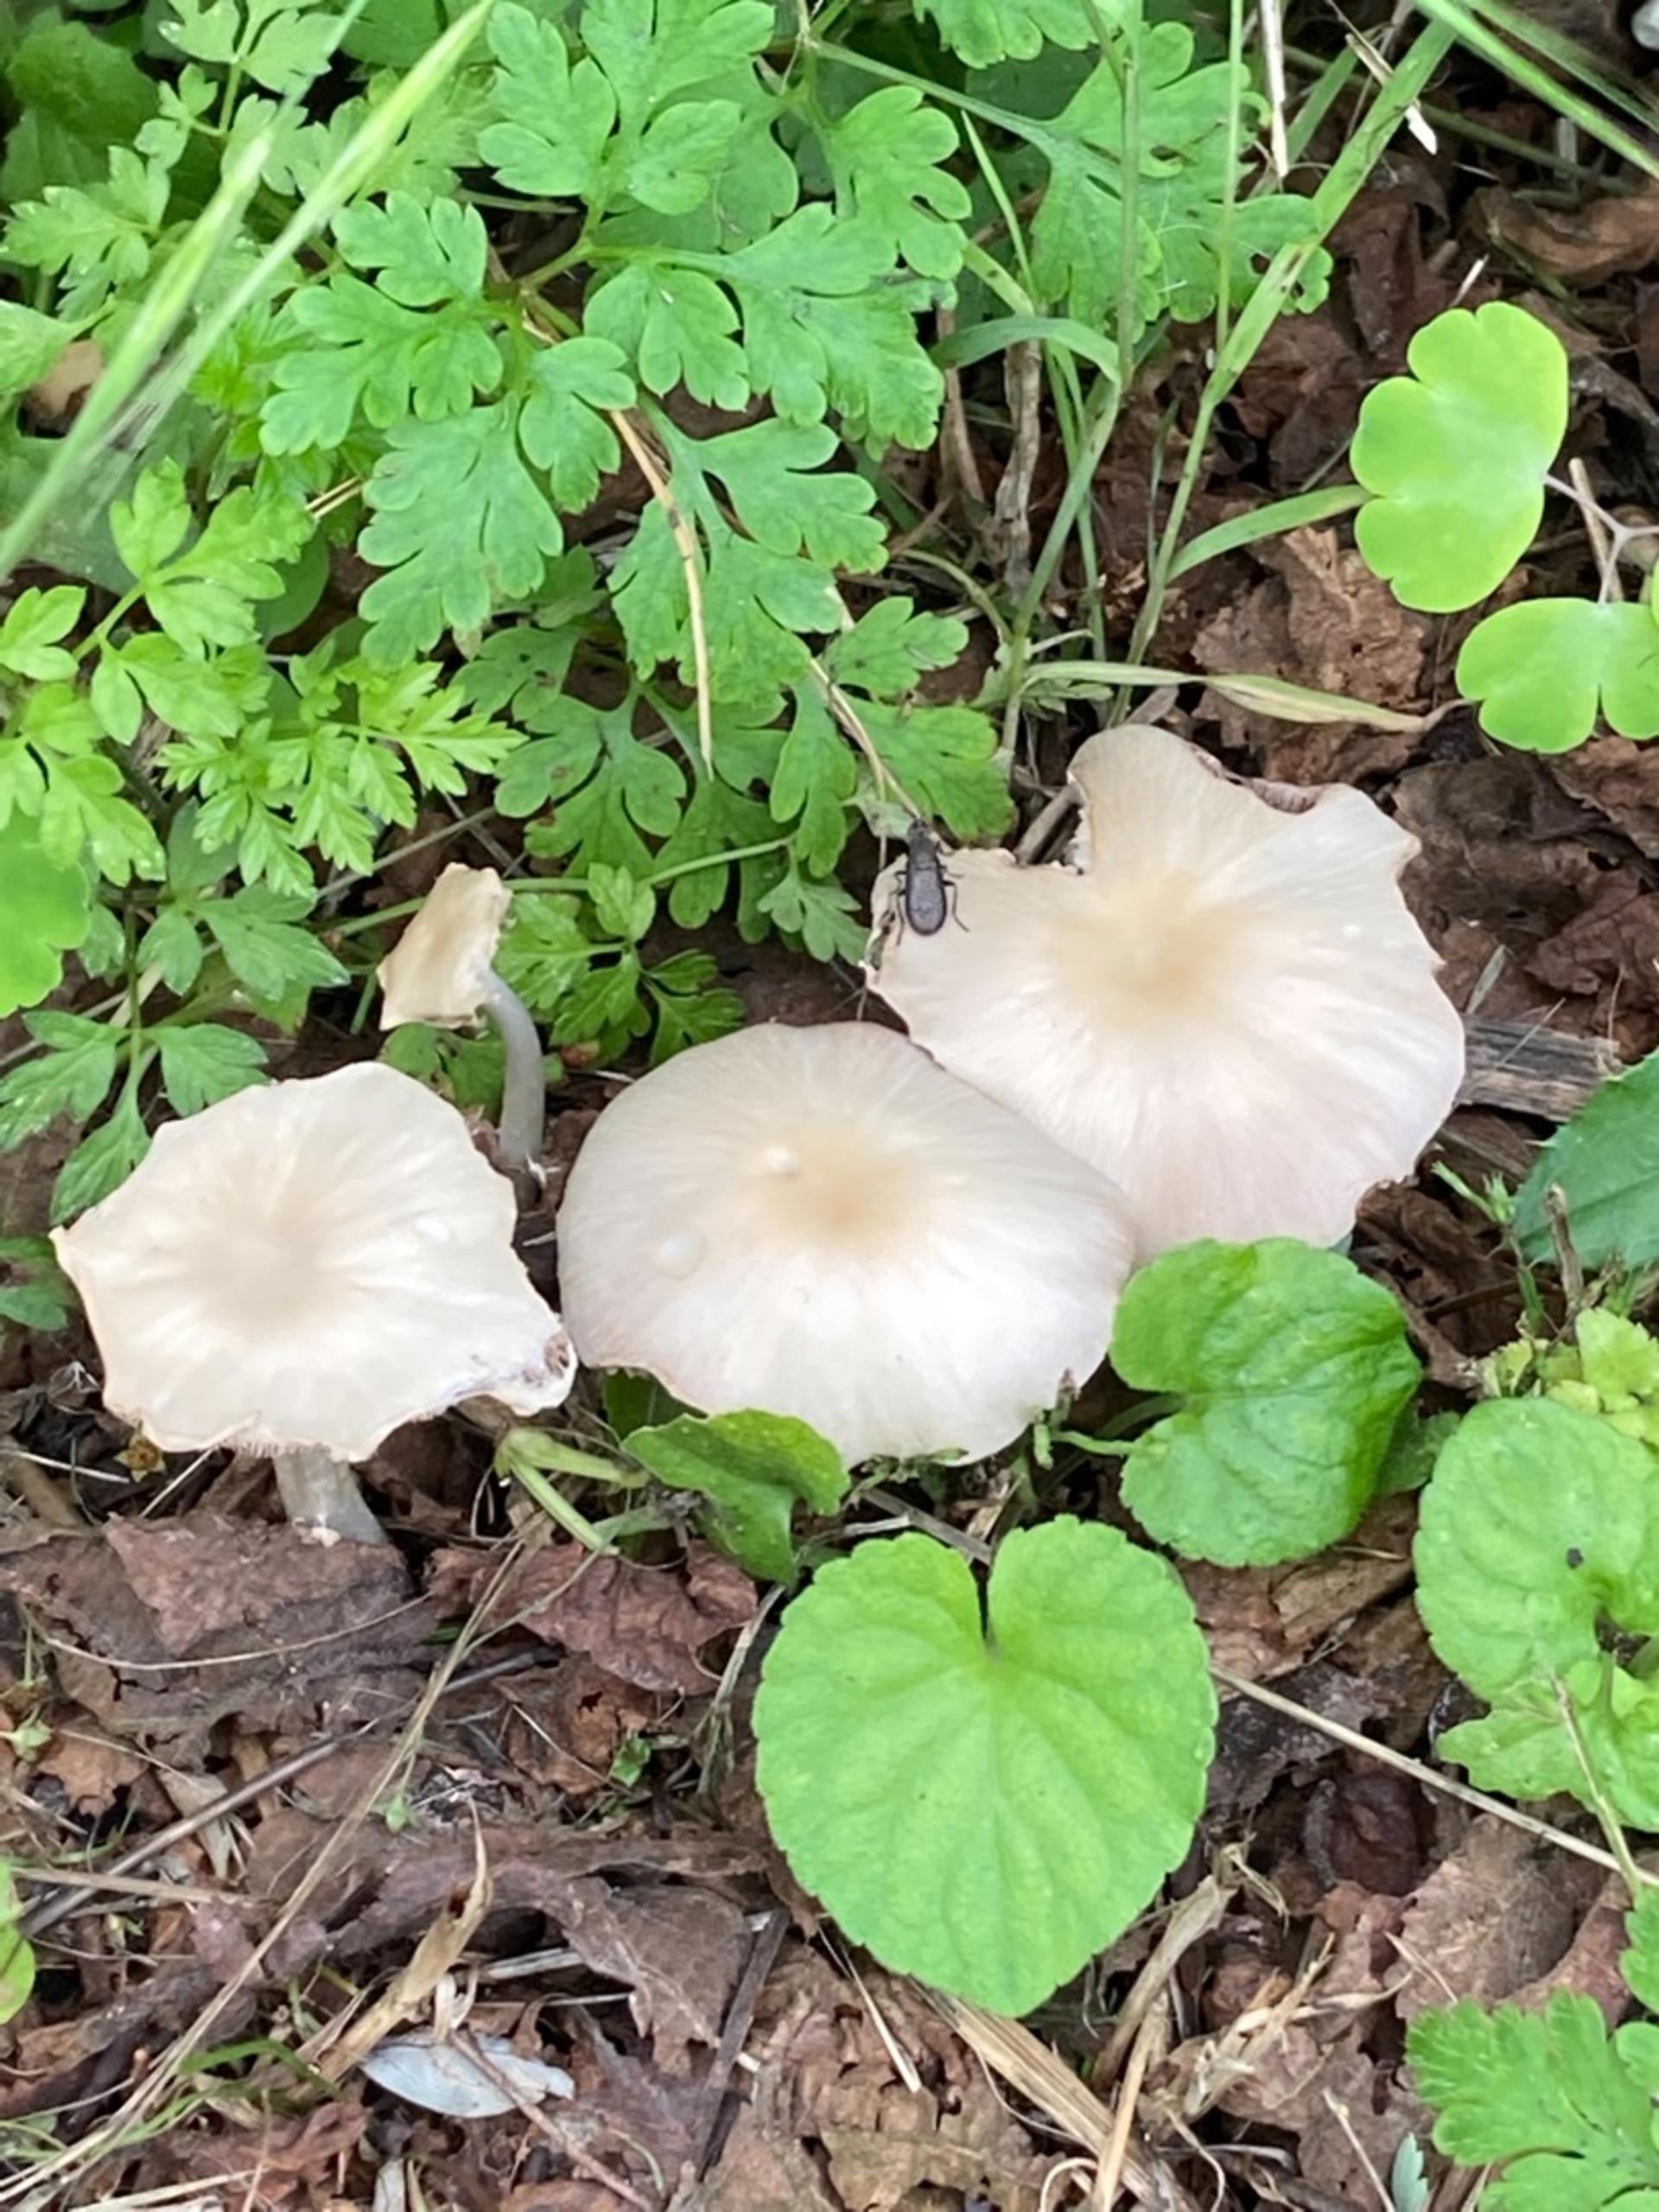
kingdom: Fungi
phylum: Basidiomycota
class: Agaricomycetes
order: Agaricales
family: Entolomataceae
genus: Entoloma
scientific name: Entoloma
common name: Rødblad
